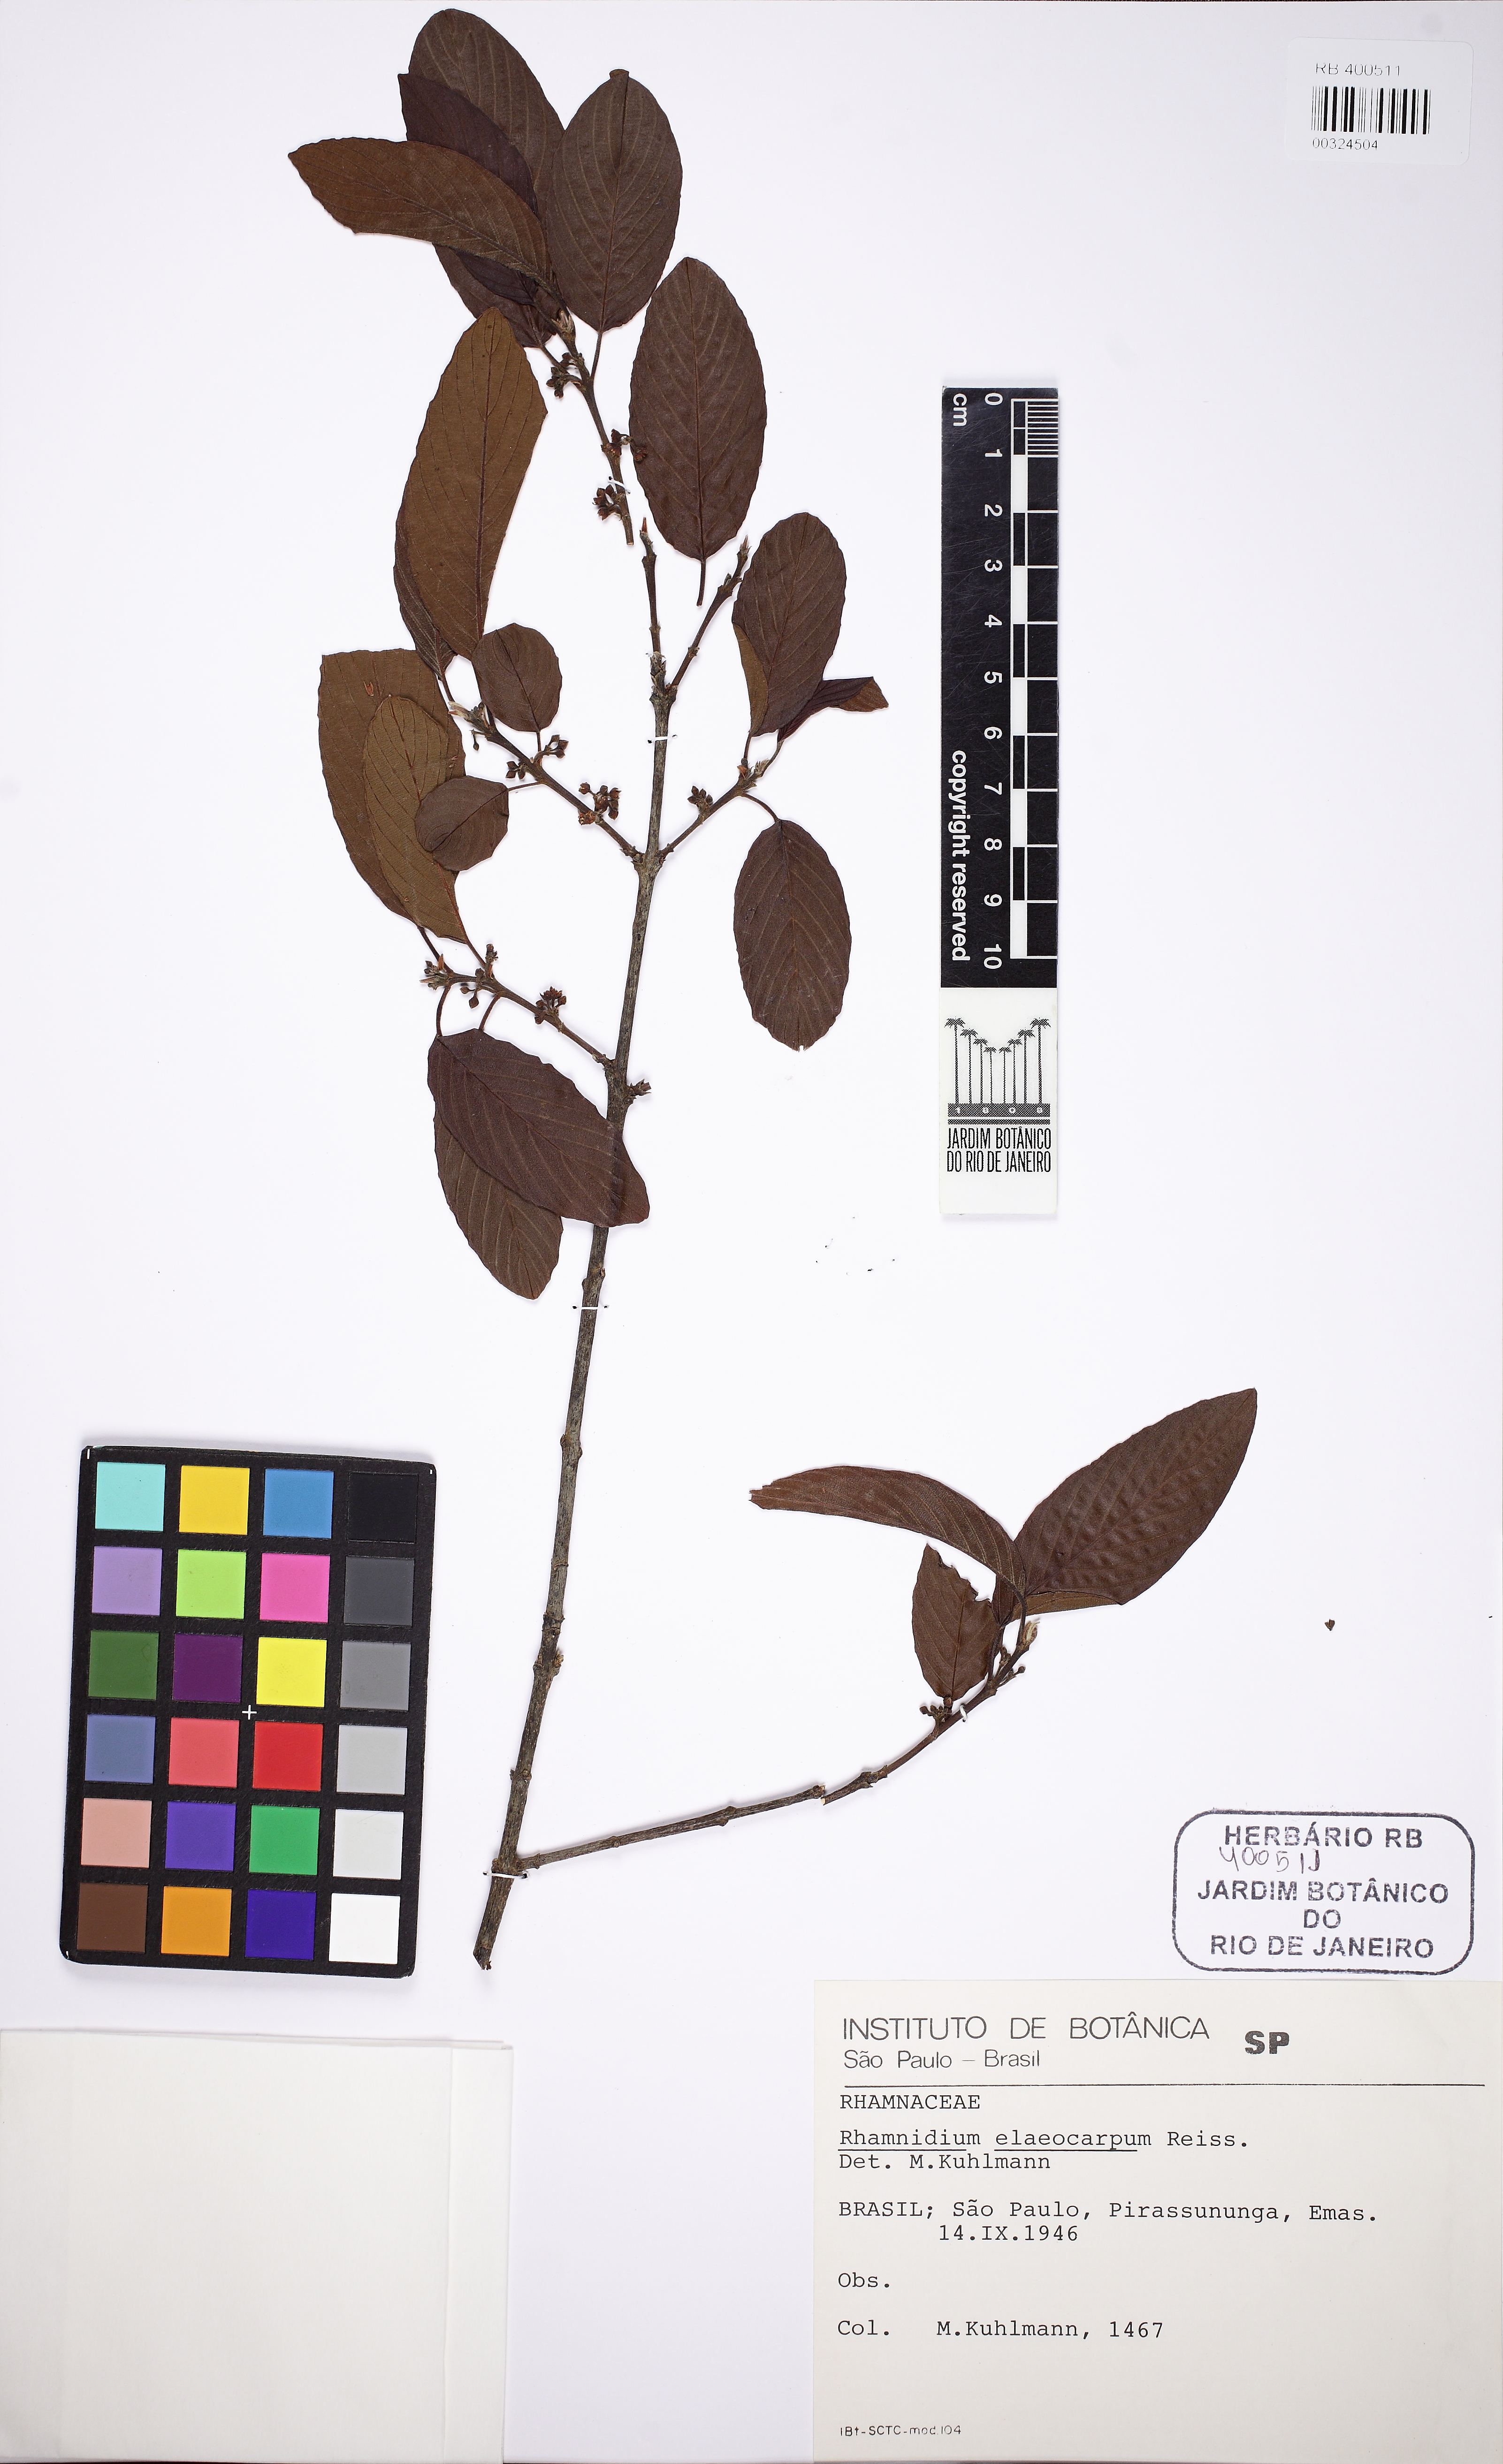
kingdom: Plantae
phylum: Tracheophyta
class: Magnoliopsida
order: Rosales
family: Rhamnaceae
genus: Rhamnidium
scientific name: Rhamnidium elaeocarpum
